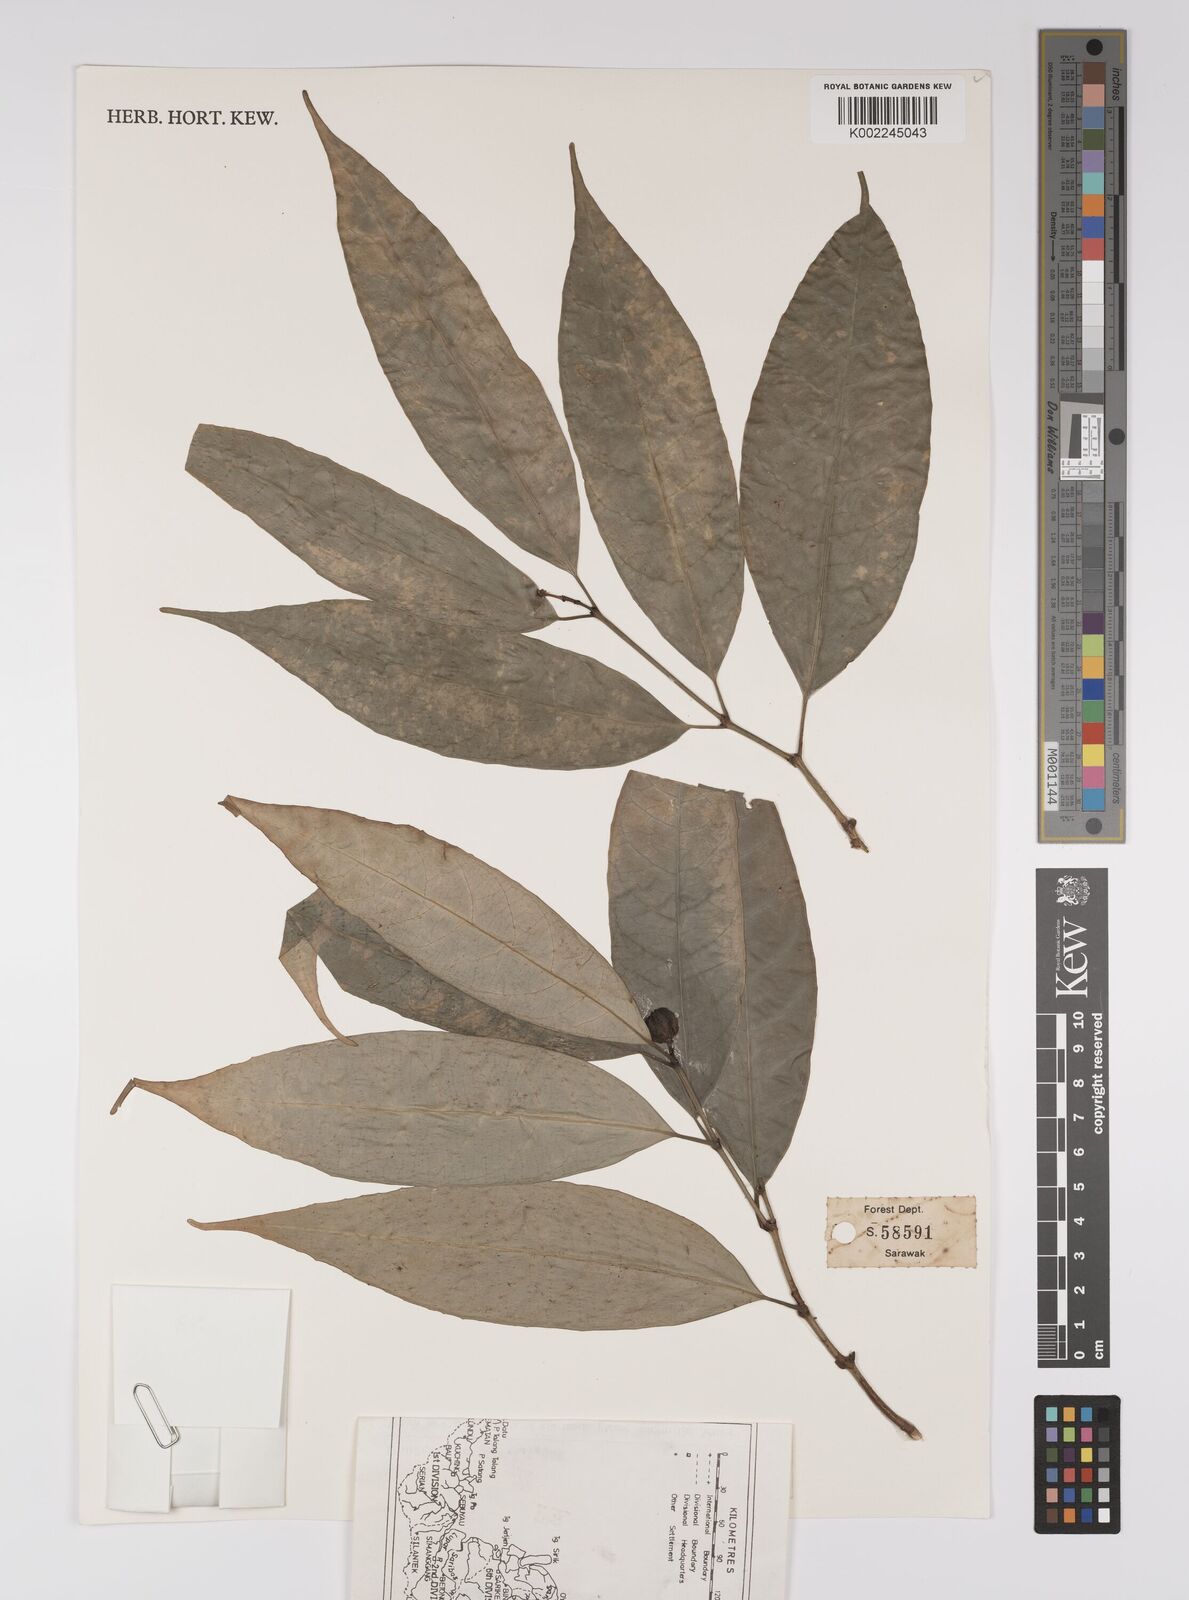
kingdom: Plantae
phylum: Tracheophyta
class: Magnoliopsida
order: Malpighiales
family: Euphorbiaceae
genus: Excoecaria
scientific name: Excoecaria borneensis
